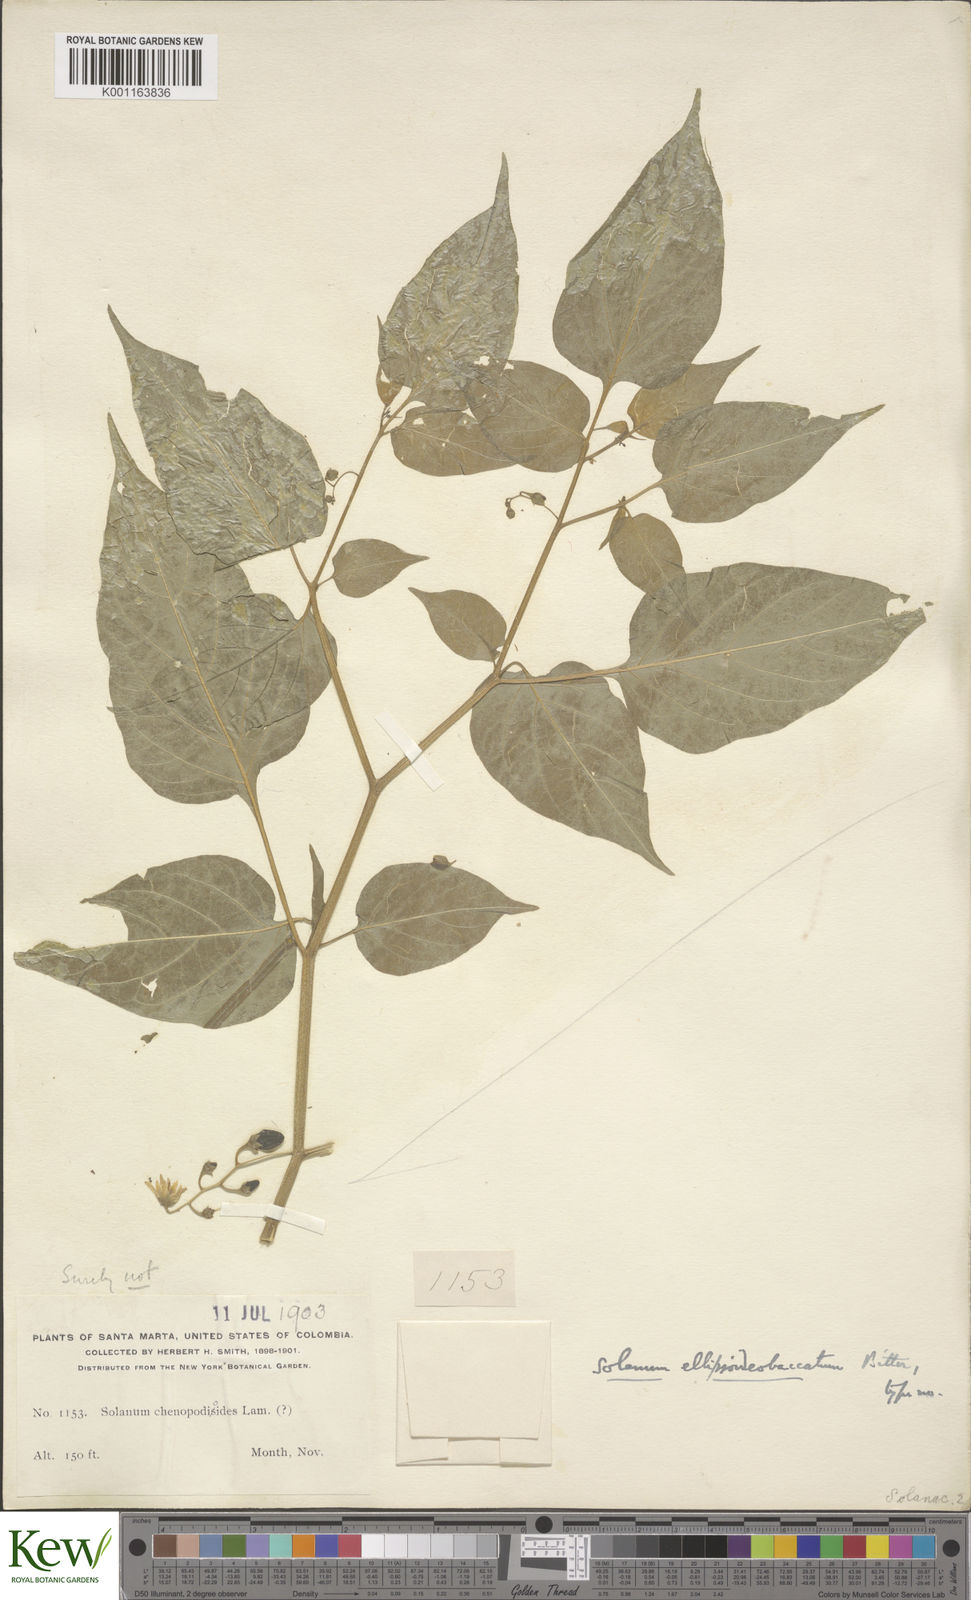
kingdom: Plantae
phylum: Tracheophyta
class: Magnoliopsida
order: Solanales
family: Solanaceae
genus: Solanum
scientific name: Solanum allophyllum
